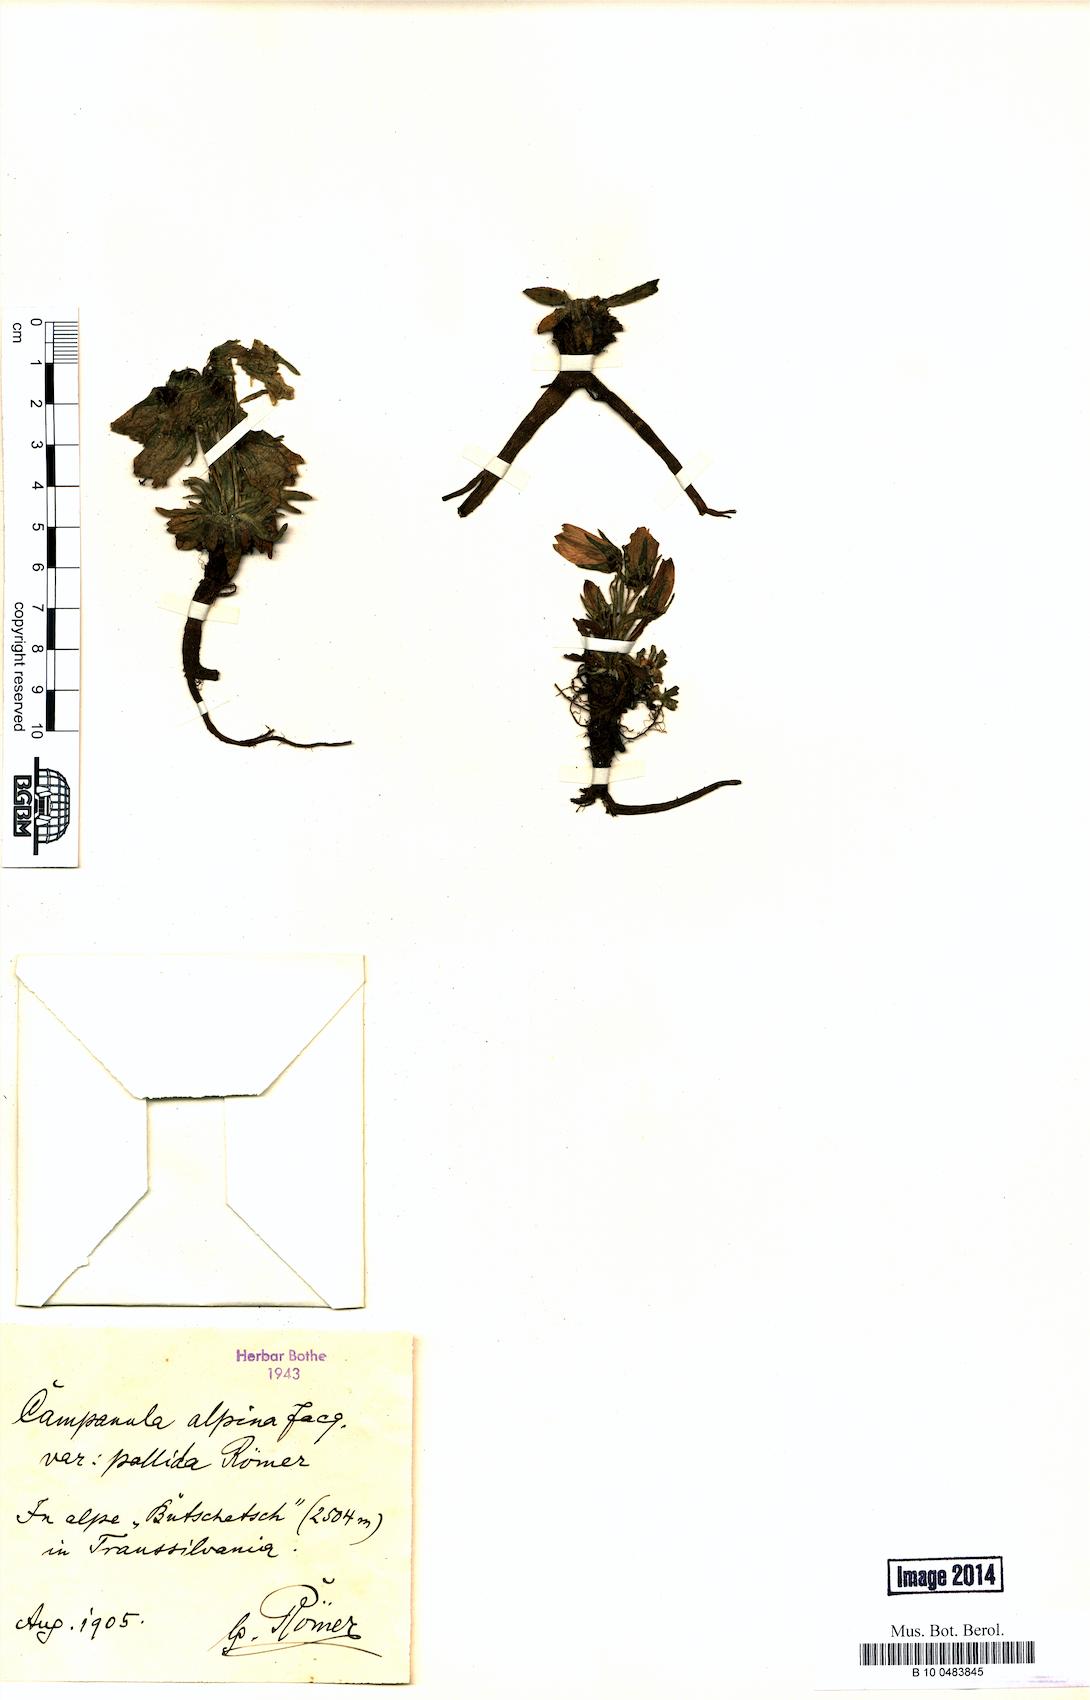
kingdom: Plantae
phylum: Tracheophyta
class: Magnoliopsida
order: Asterales
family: Campanulaceae
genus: Campanula
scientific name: Campanula alpina
